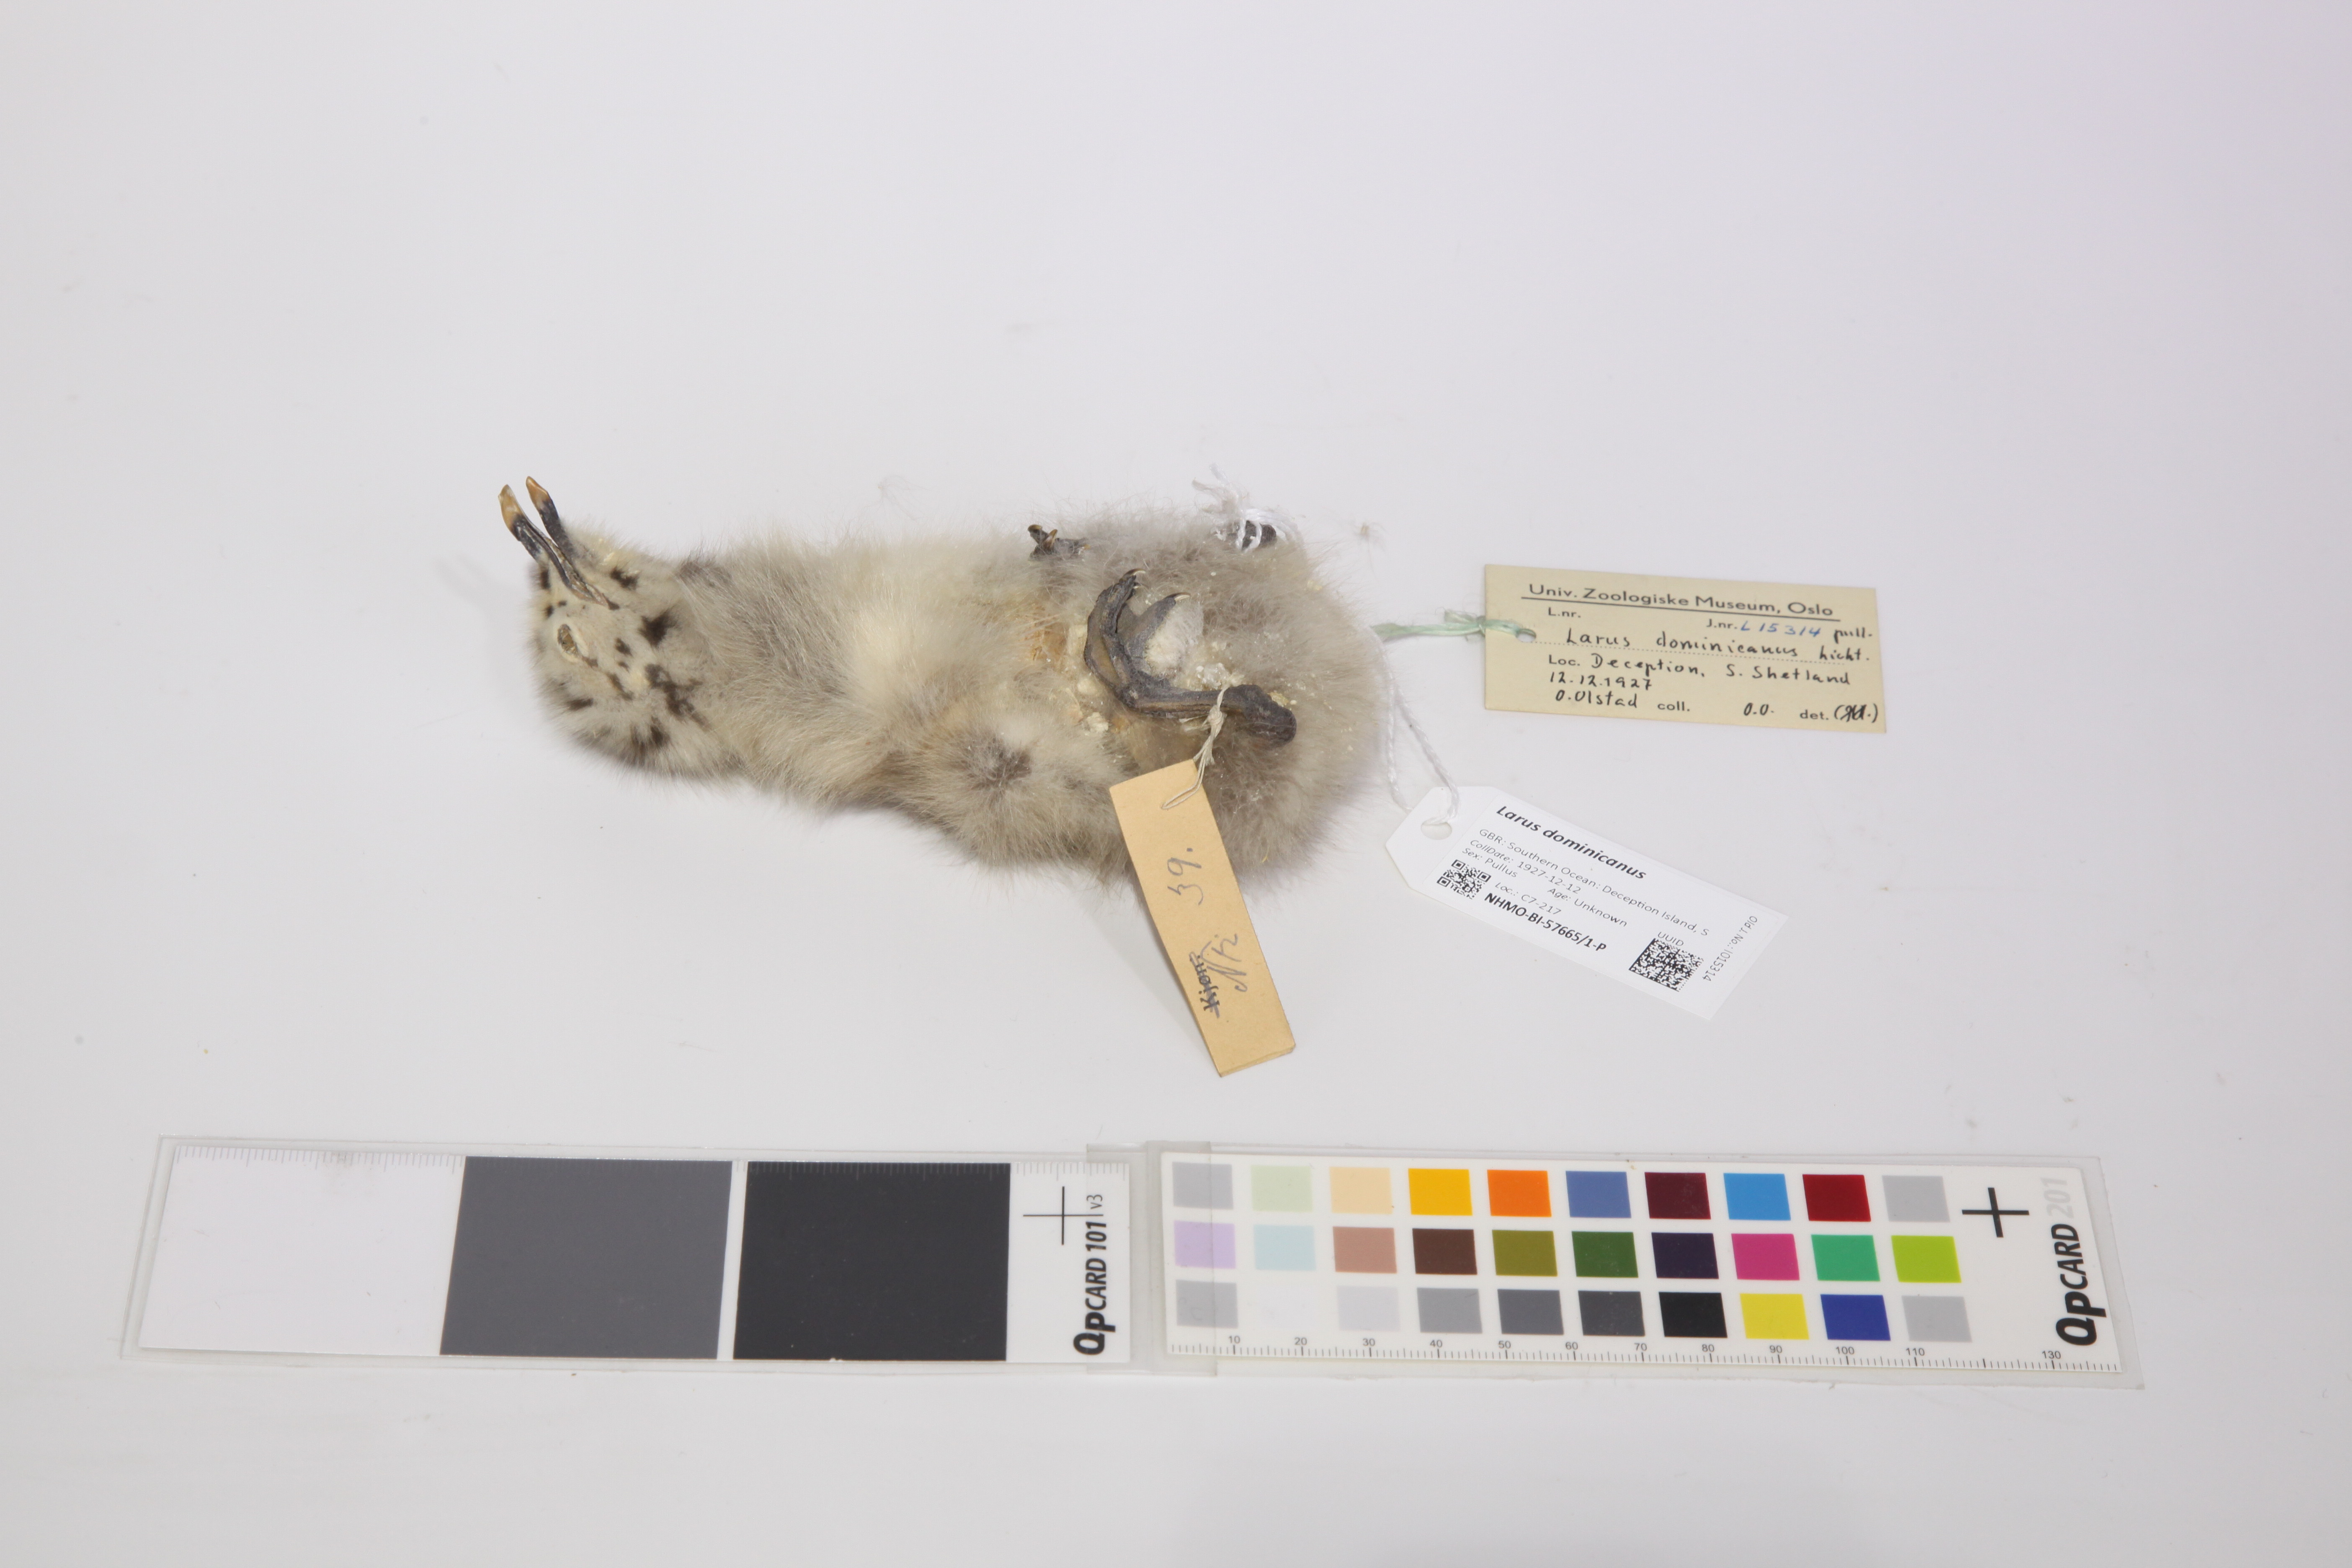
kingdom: Animalia
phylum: Chordata
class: Aves
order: Charadriiformes
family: Laridae
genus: Larus
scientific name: Larus dominicanus
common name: Kelp gull
